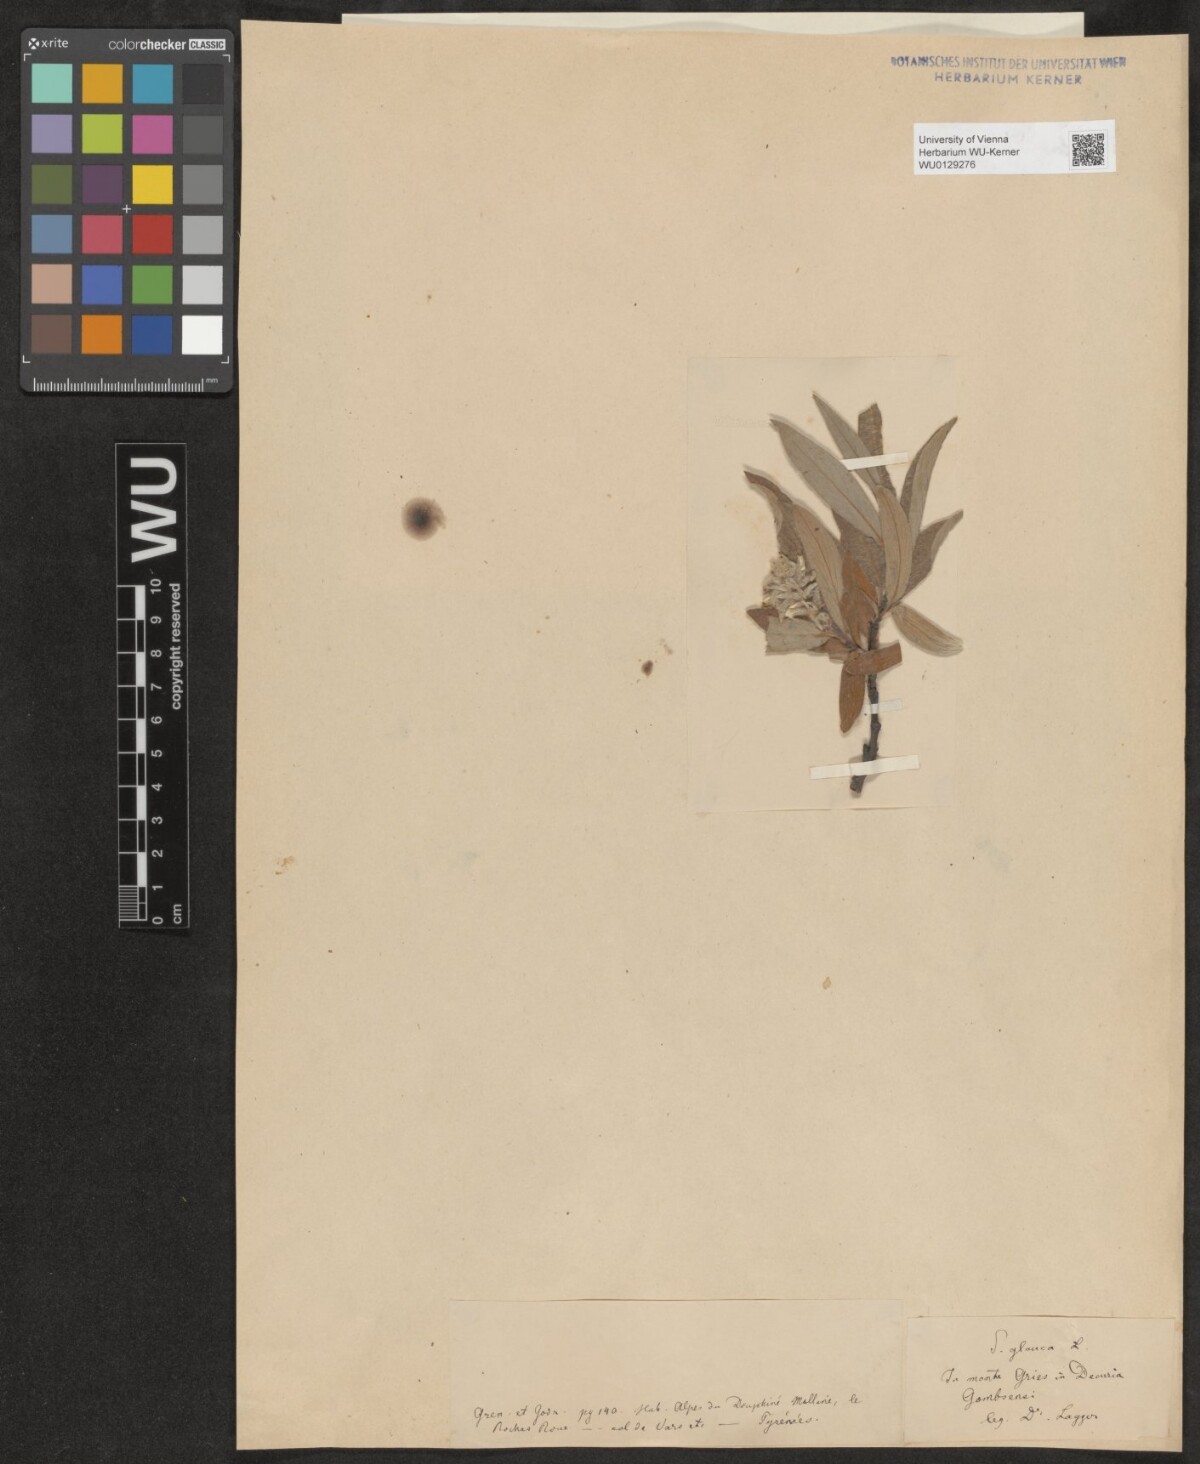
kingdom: Plantae
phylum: Tracheophyta
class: Magnoliopsida
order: Malpighiales
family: Salicaceae
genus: Salix
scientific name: Salix glauca
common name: Glaucous willow
